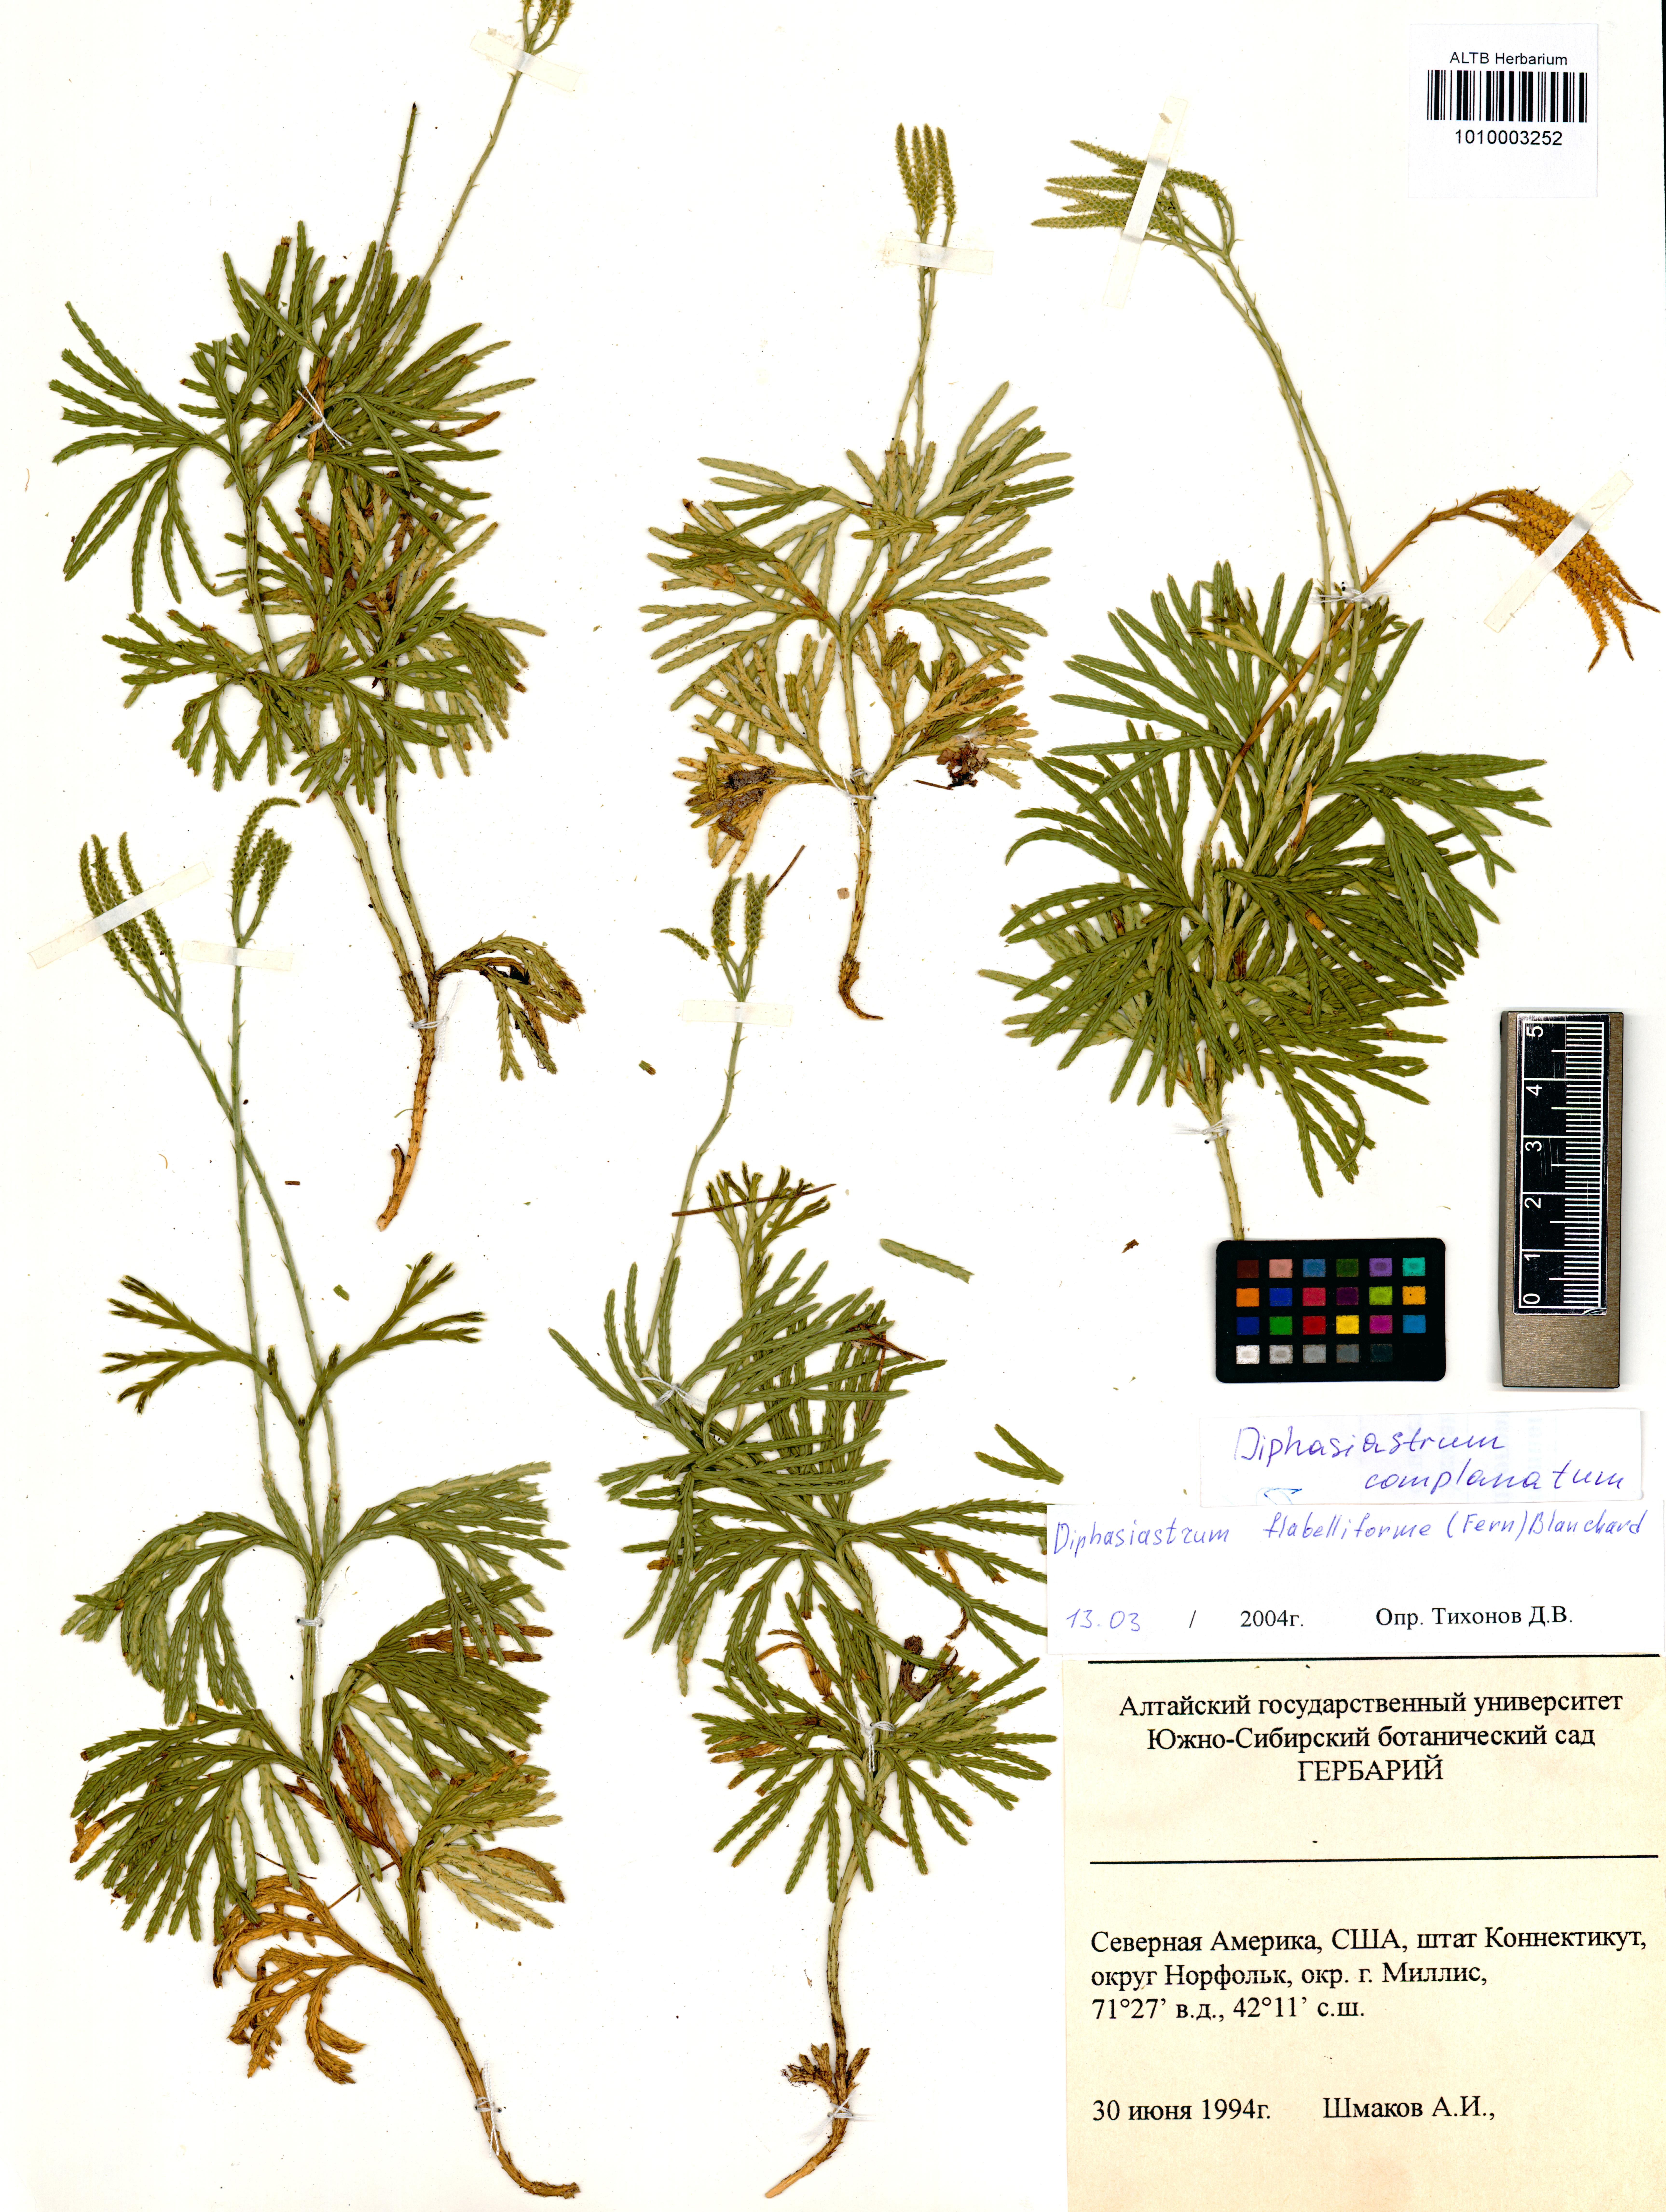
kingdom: Plantae
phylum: Tracheophyta
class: Lycopodiopsida
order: Lycopodiales
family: Lycopodiaceae
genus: Diphasiastrum
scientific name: Diphasiastrum complanatum
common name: Northern running-pine
